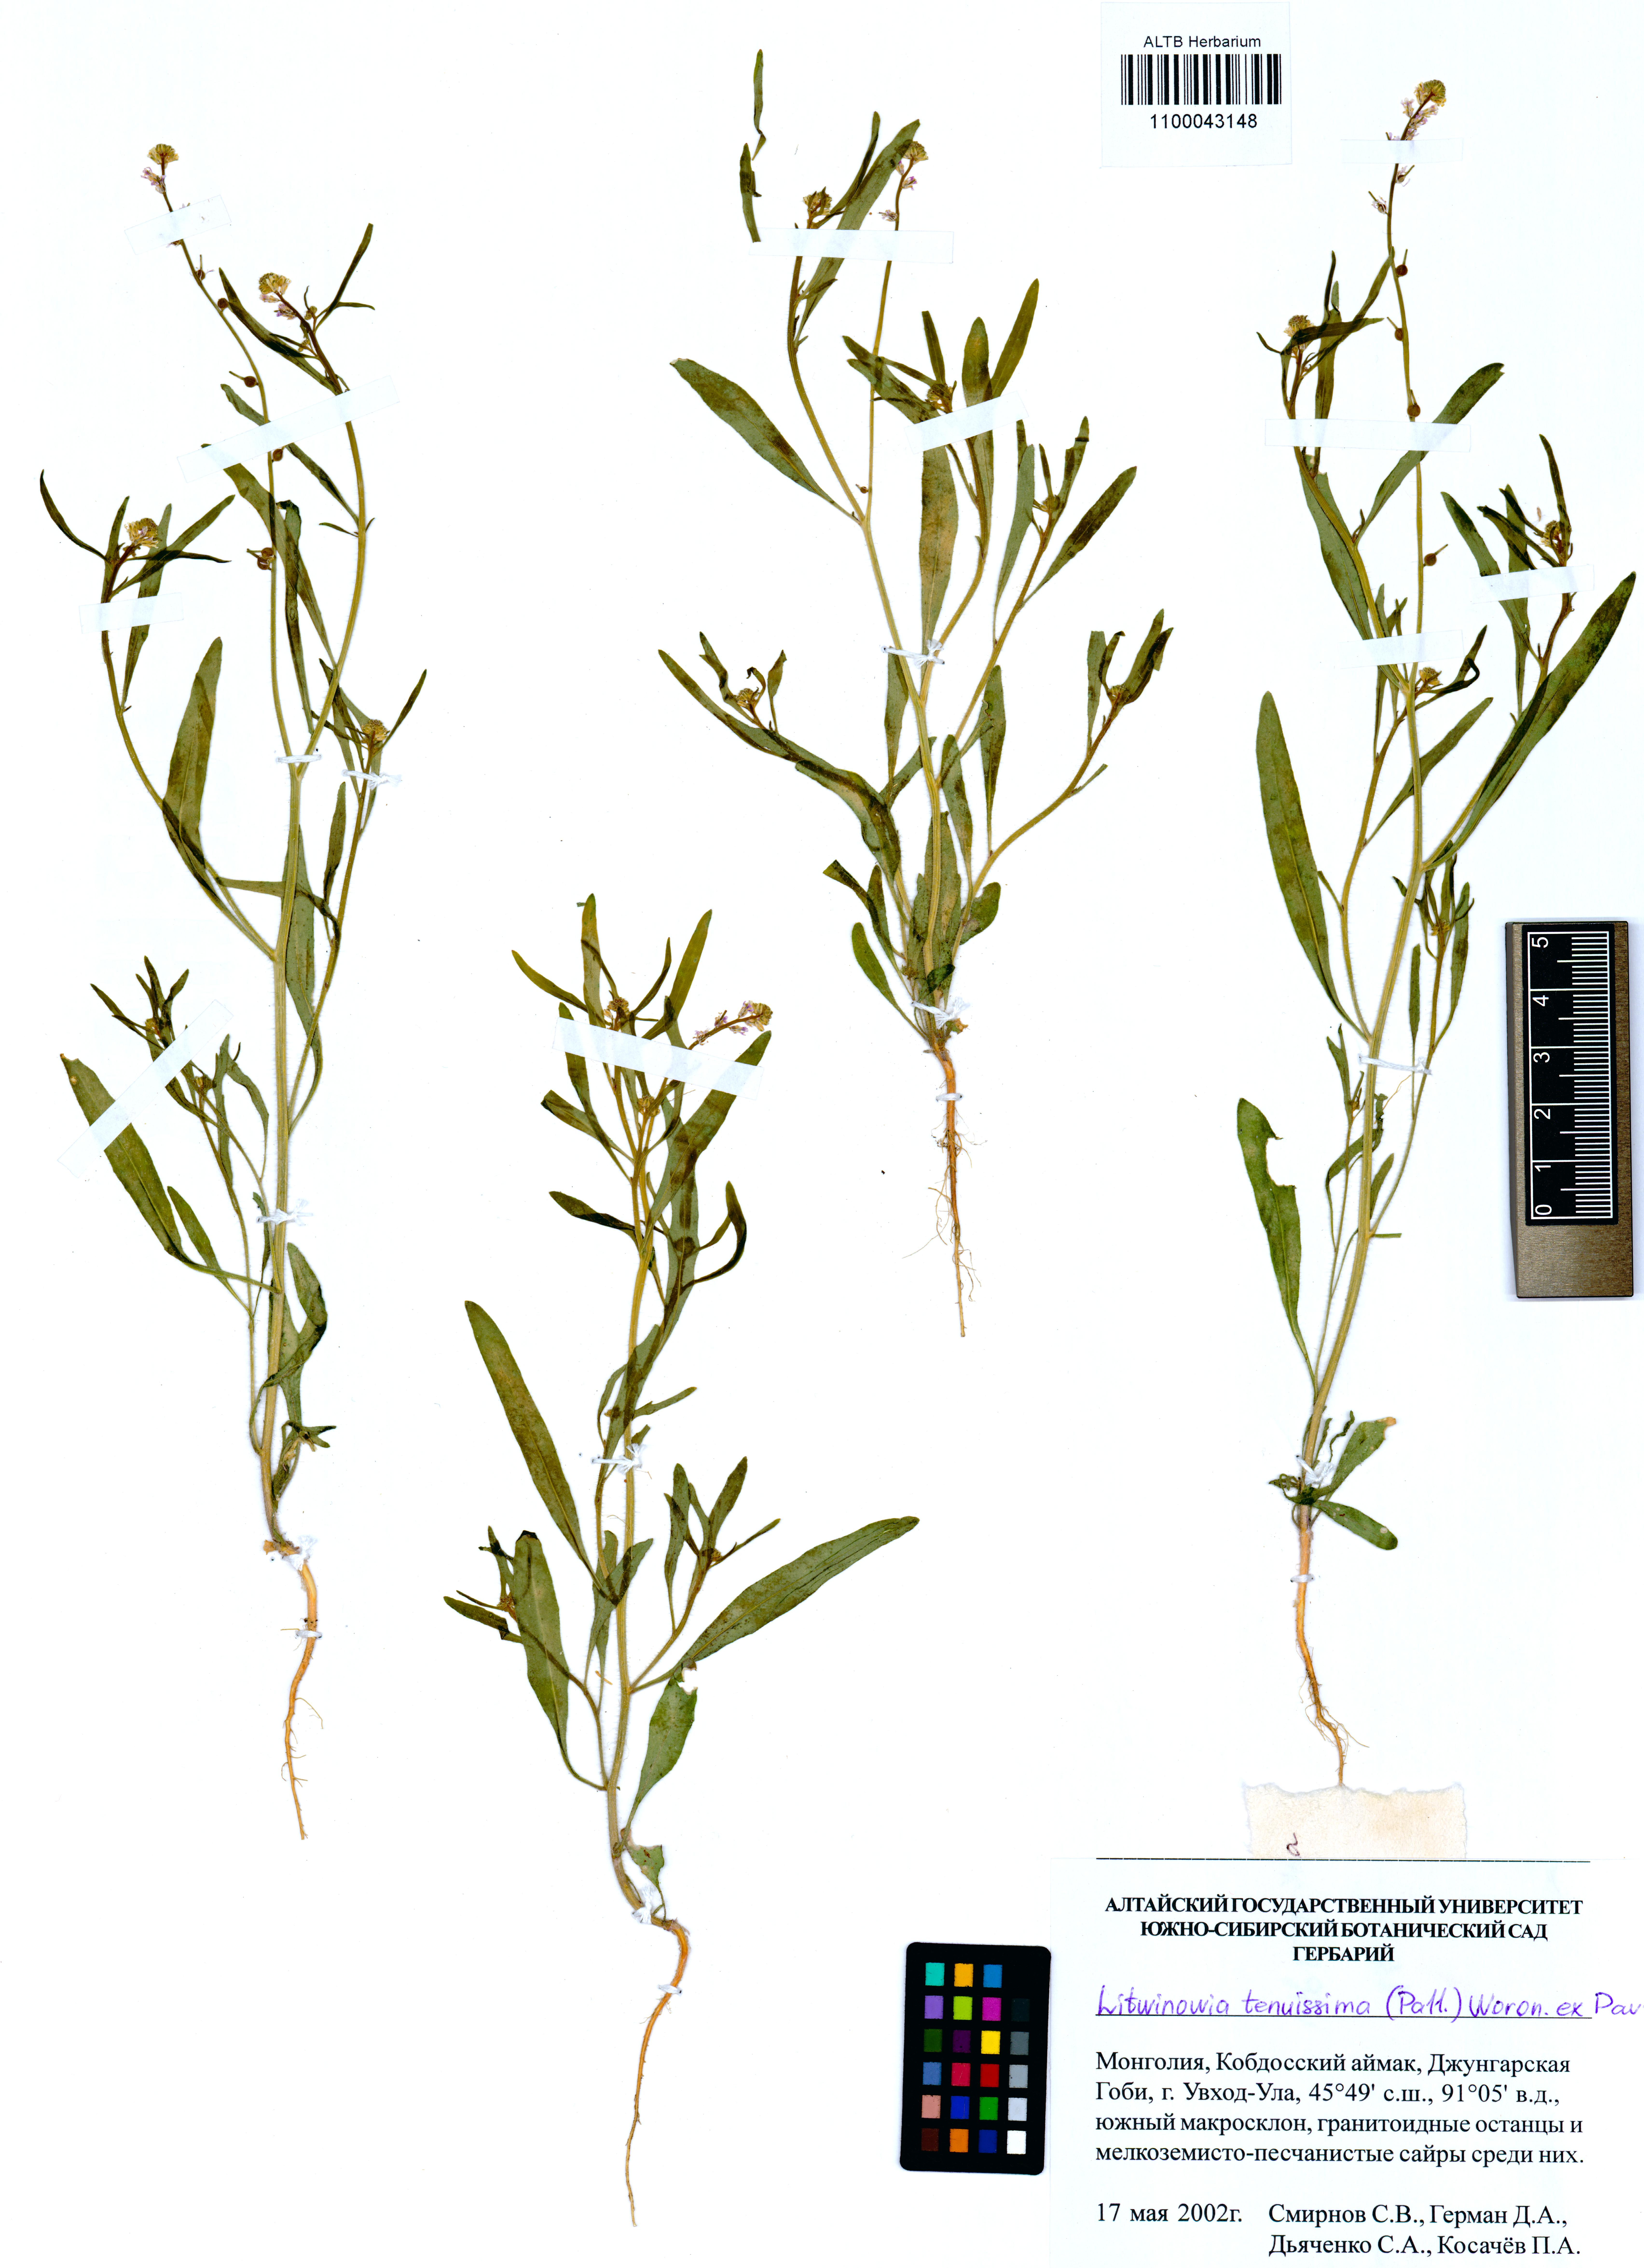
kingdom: Plantae
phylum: Tracheophyta
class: Magnoliopsida
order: Brassicales
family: Brassicaceae
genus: Litwinowia
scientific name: Litwinowia tenuissima
